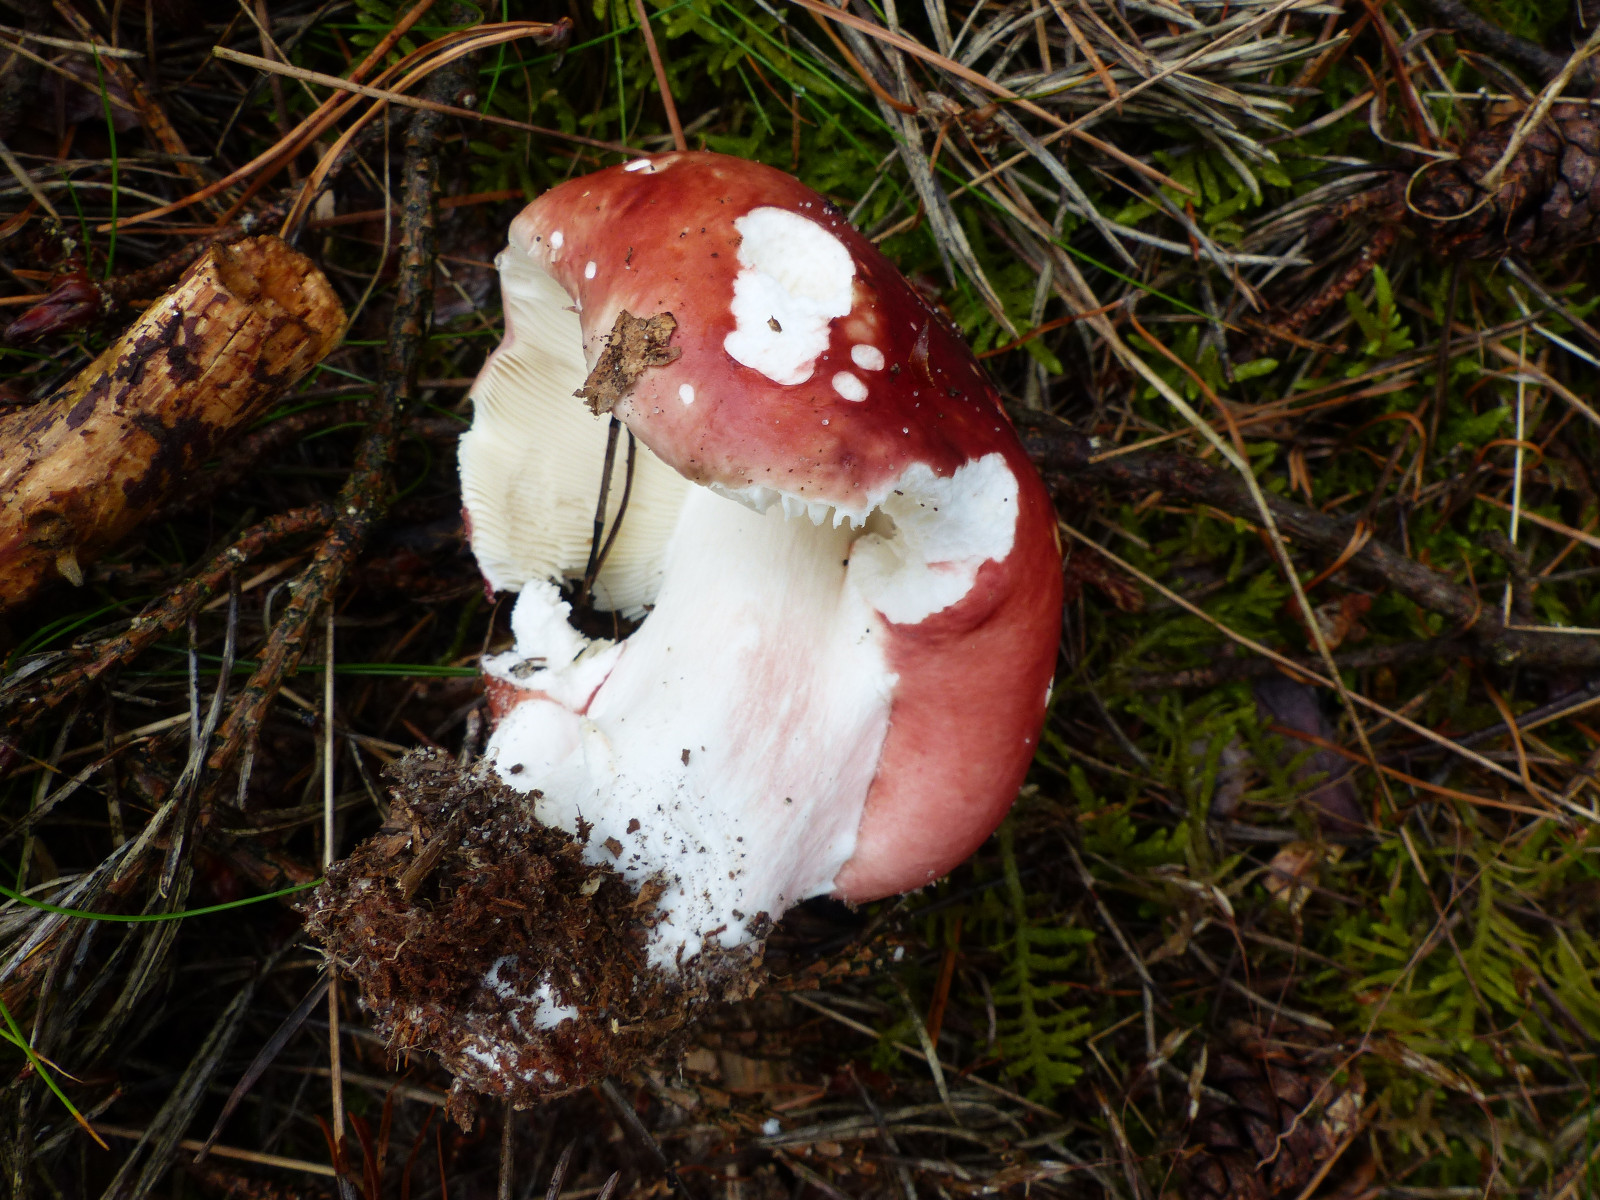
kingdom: Fungi
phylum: Basidiomycota
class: Agaricomycetes
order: Russulales
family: Russulaceae
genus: Russula
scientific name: Russula paludosa
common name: prægtig skørhat
